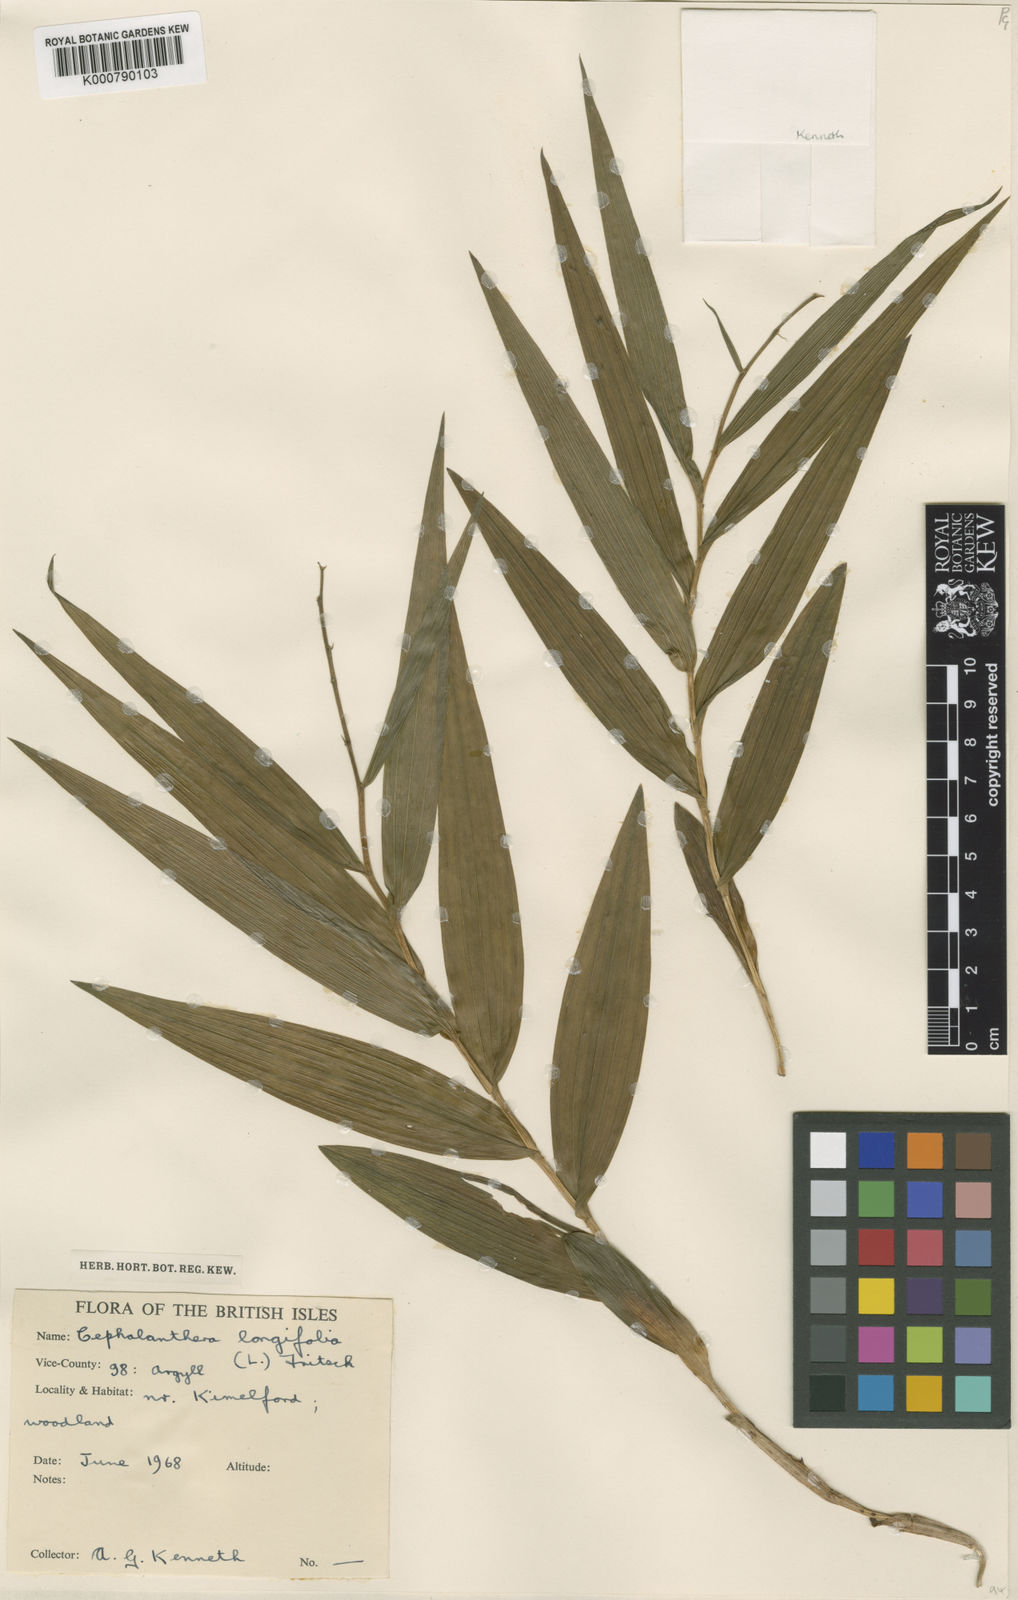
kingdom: Plantae
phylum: Tracheophyta
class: Liliopsida
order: Asparagales
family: Orchidaceae
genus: Cephalanthera
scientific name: Cephalanthera longifolia
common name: Narrow-leaved helleborine
